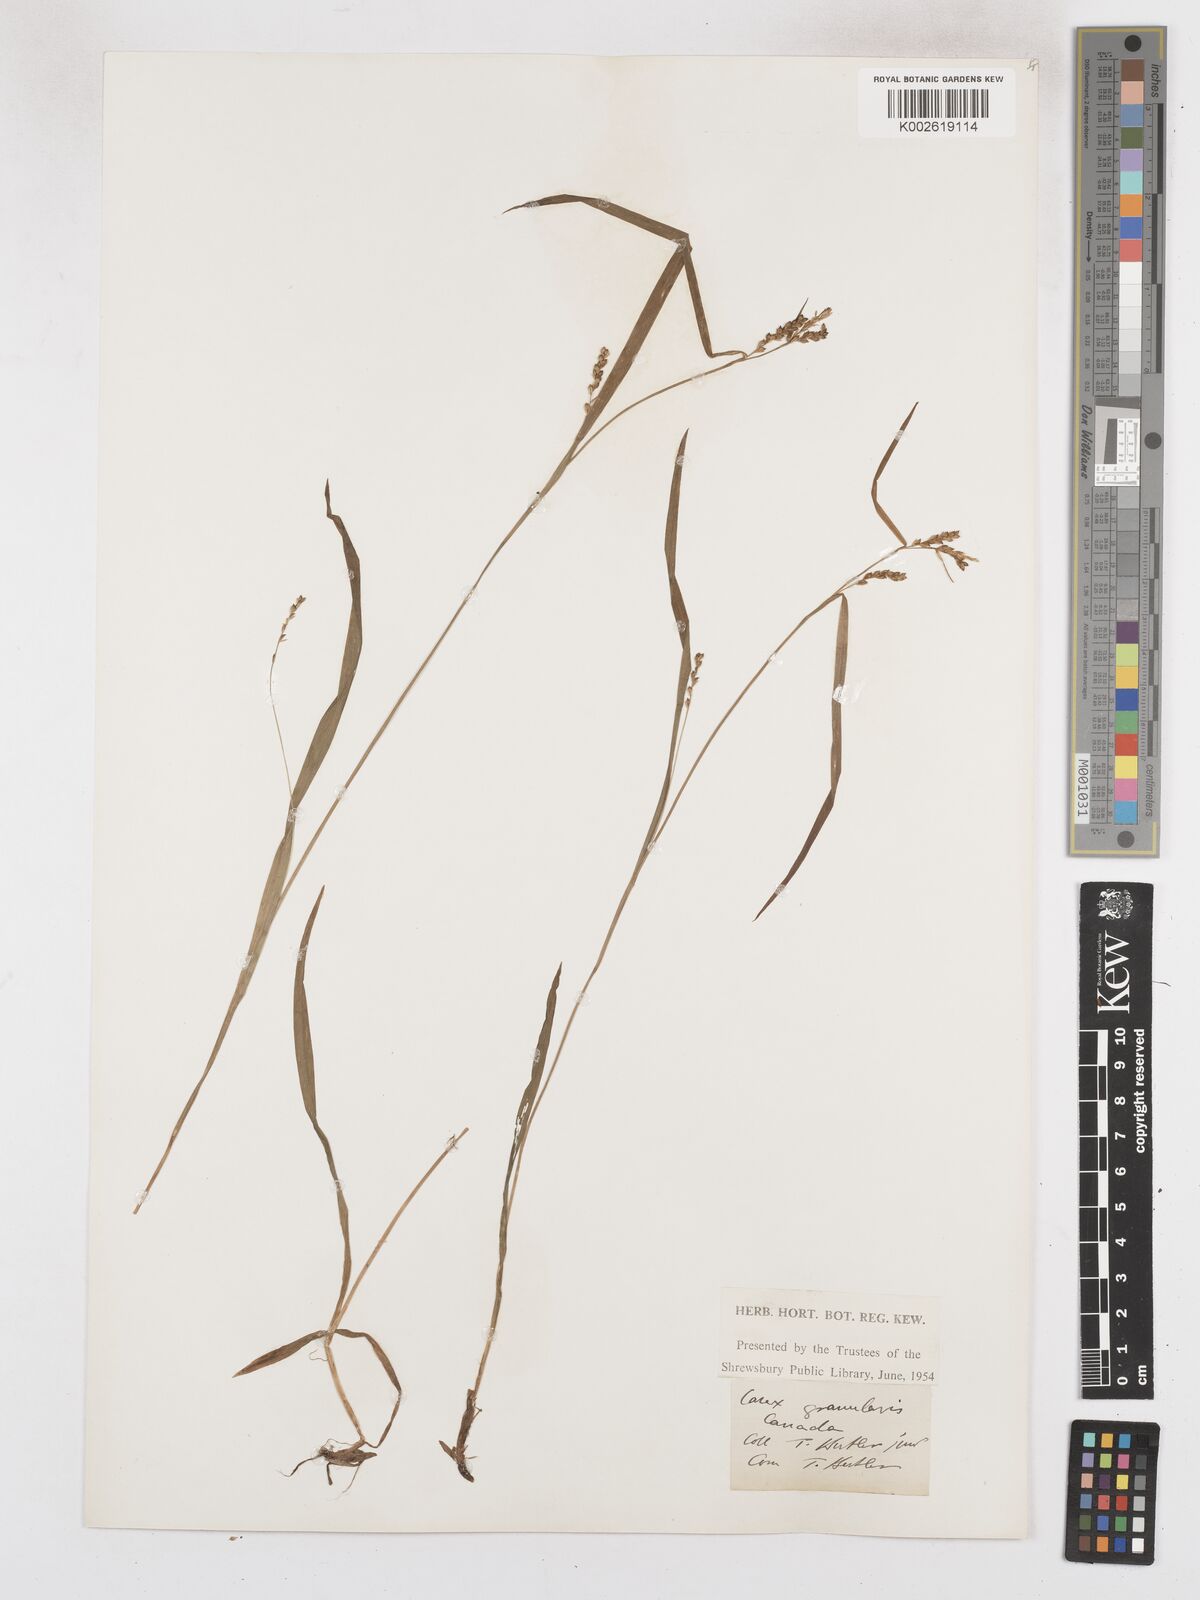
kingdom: Plantae
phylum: Tracheophyta
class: Liliopsida
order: Poales
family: Cyperaceae
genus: Carex
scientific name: Carex granularis
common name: Granular sedge
